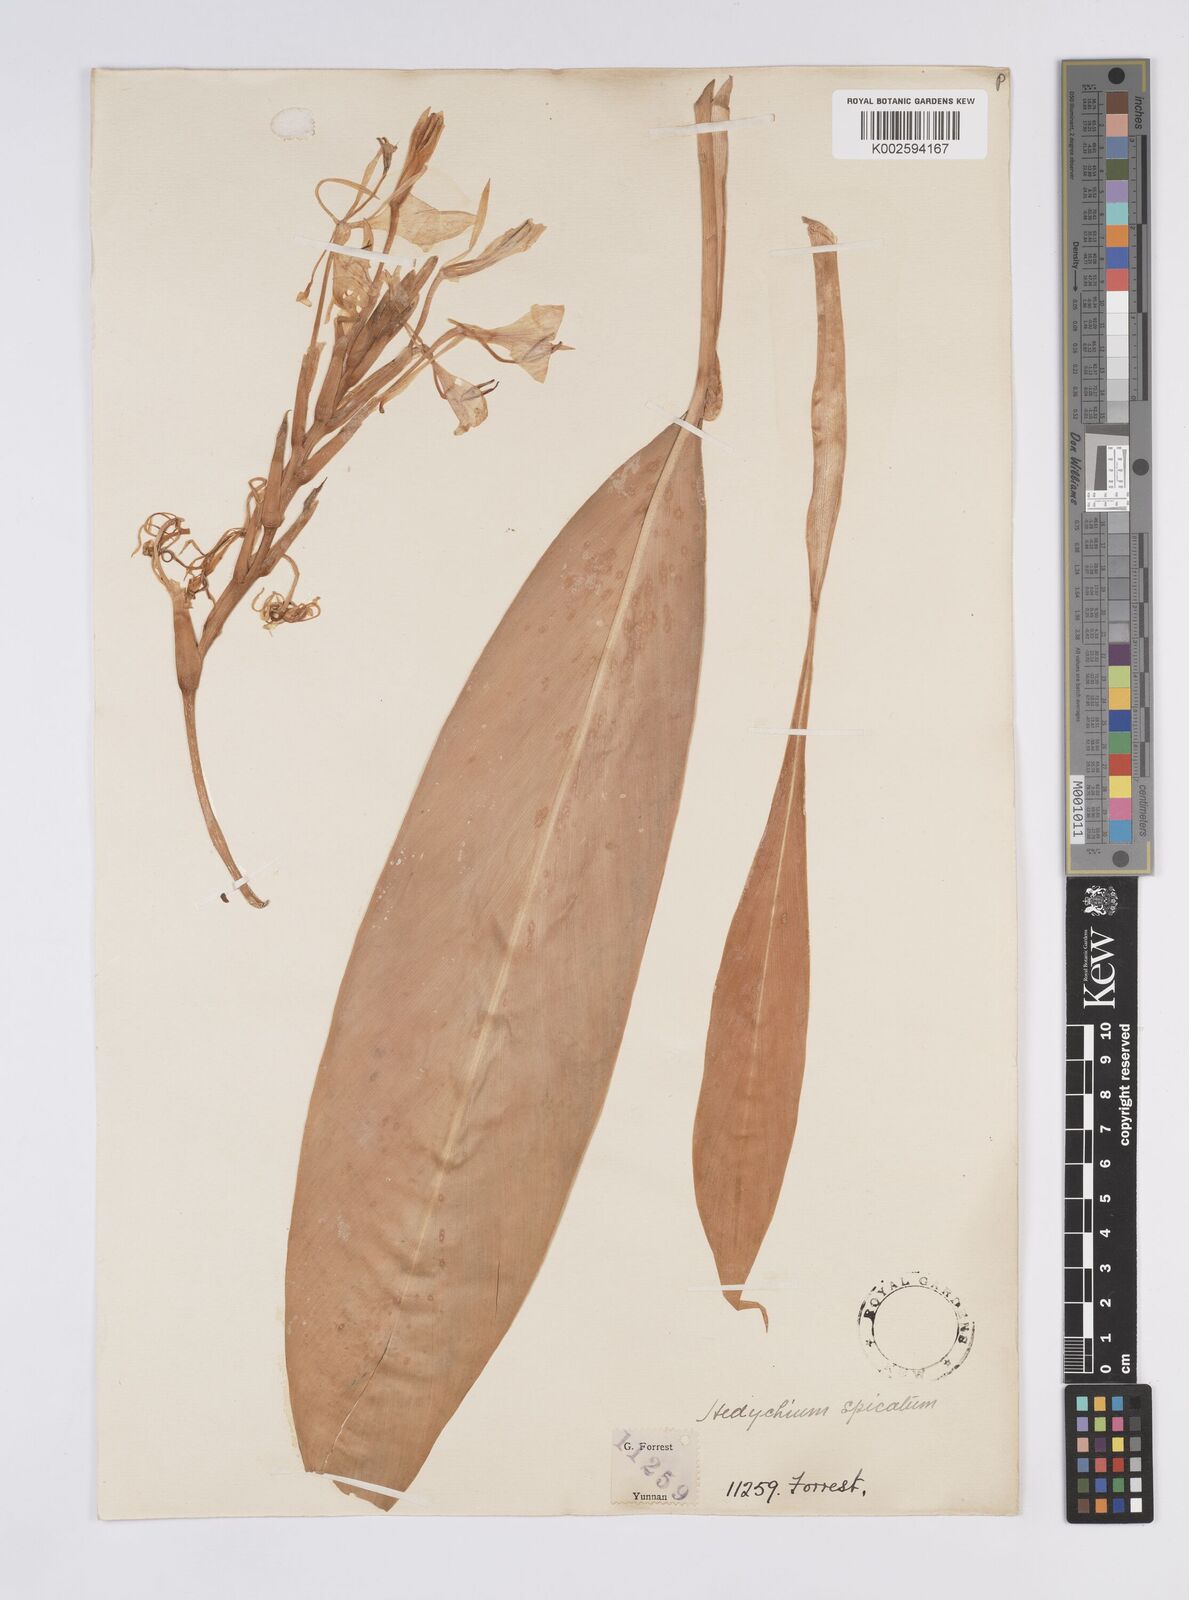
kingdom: Plantae
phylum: Tracheophyta
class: Liliopsida
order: Zingiberales
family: Zingiberaceae
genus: Hedychium
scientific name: Hedychium spicatum
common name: Spiked ginger-lily
